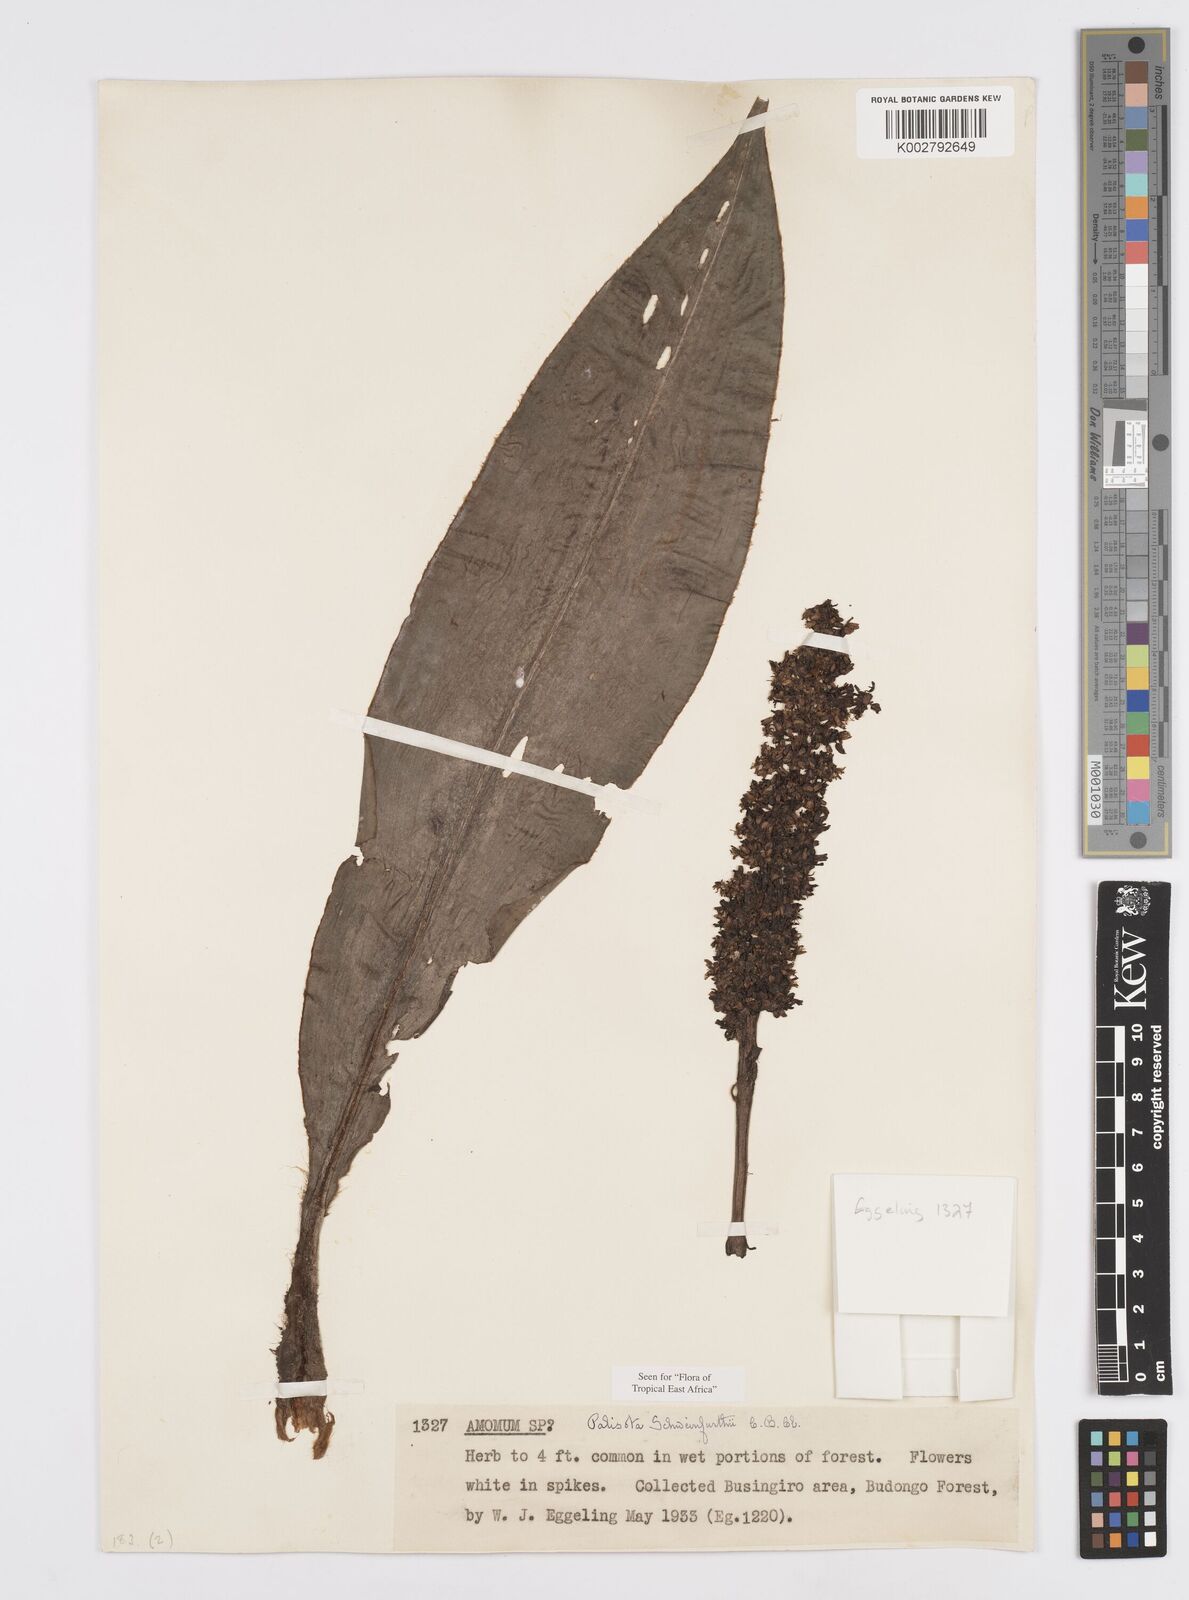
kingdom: Plantae
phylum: Tracheophyta
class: Liliopsida
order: Commelinales
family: Commelinaceae
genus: Palisota
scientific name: Palisota schweinfurthii
